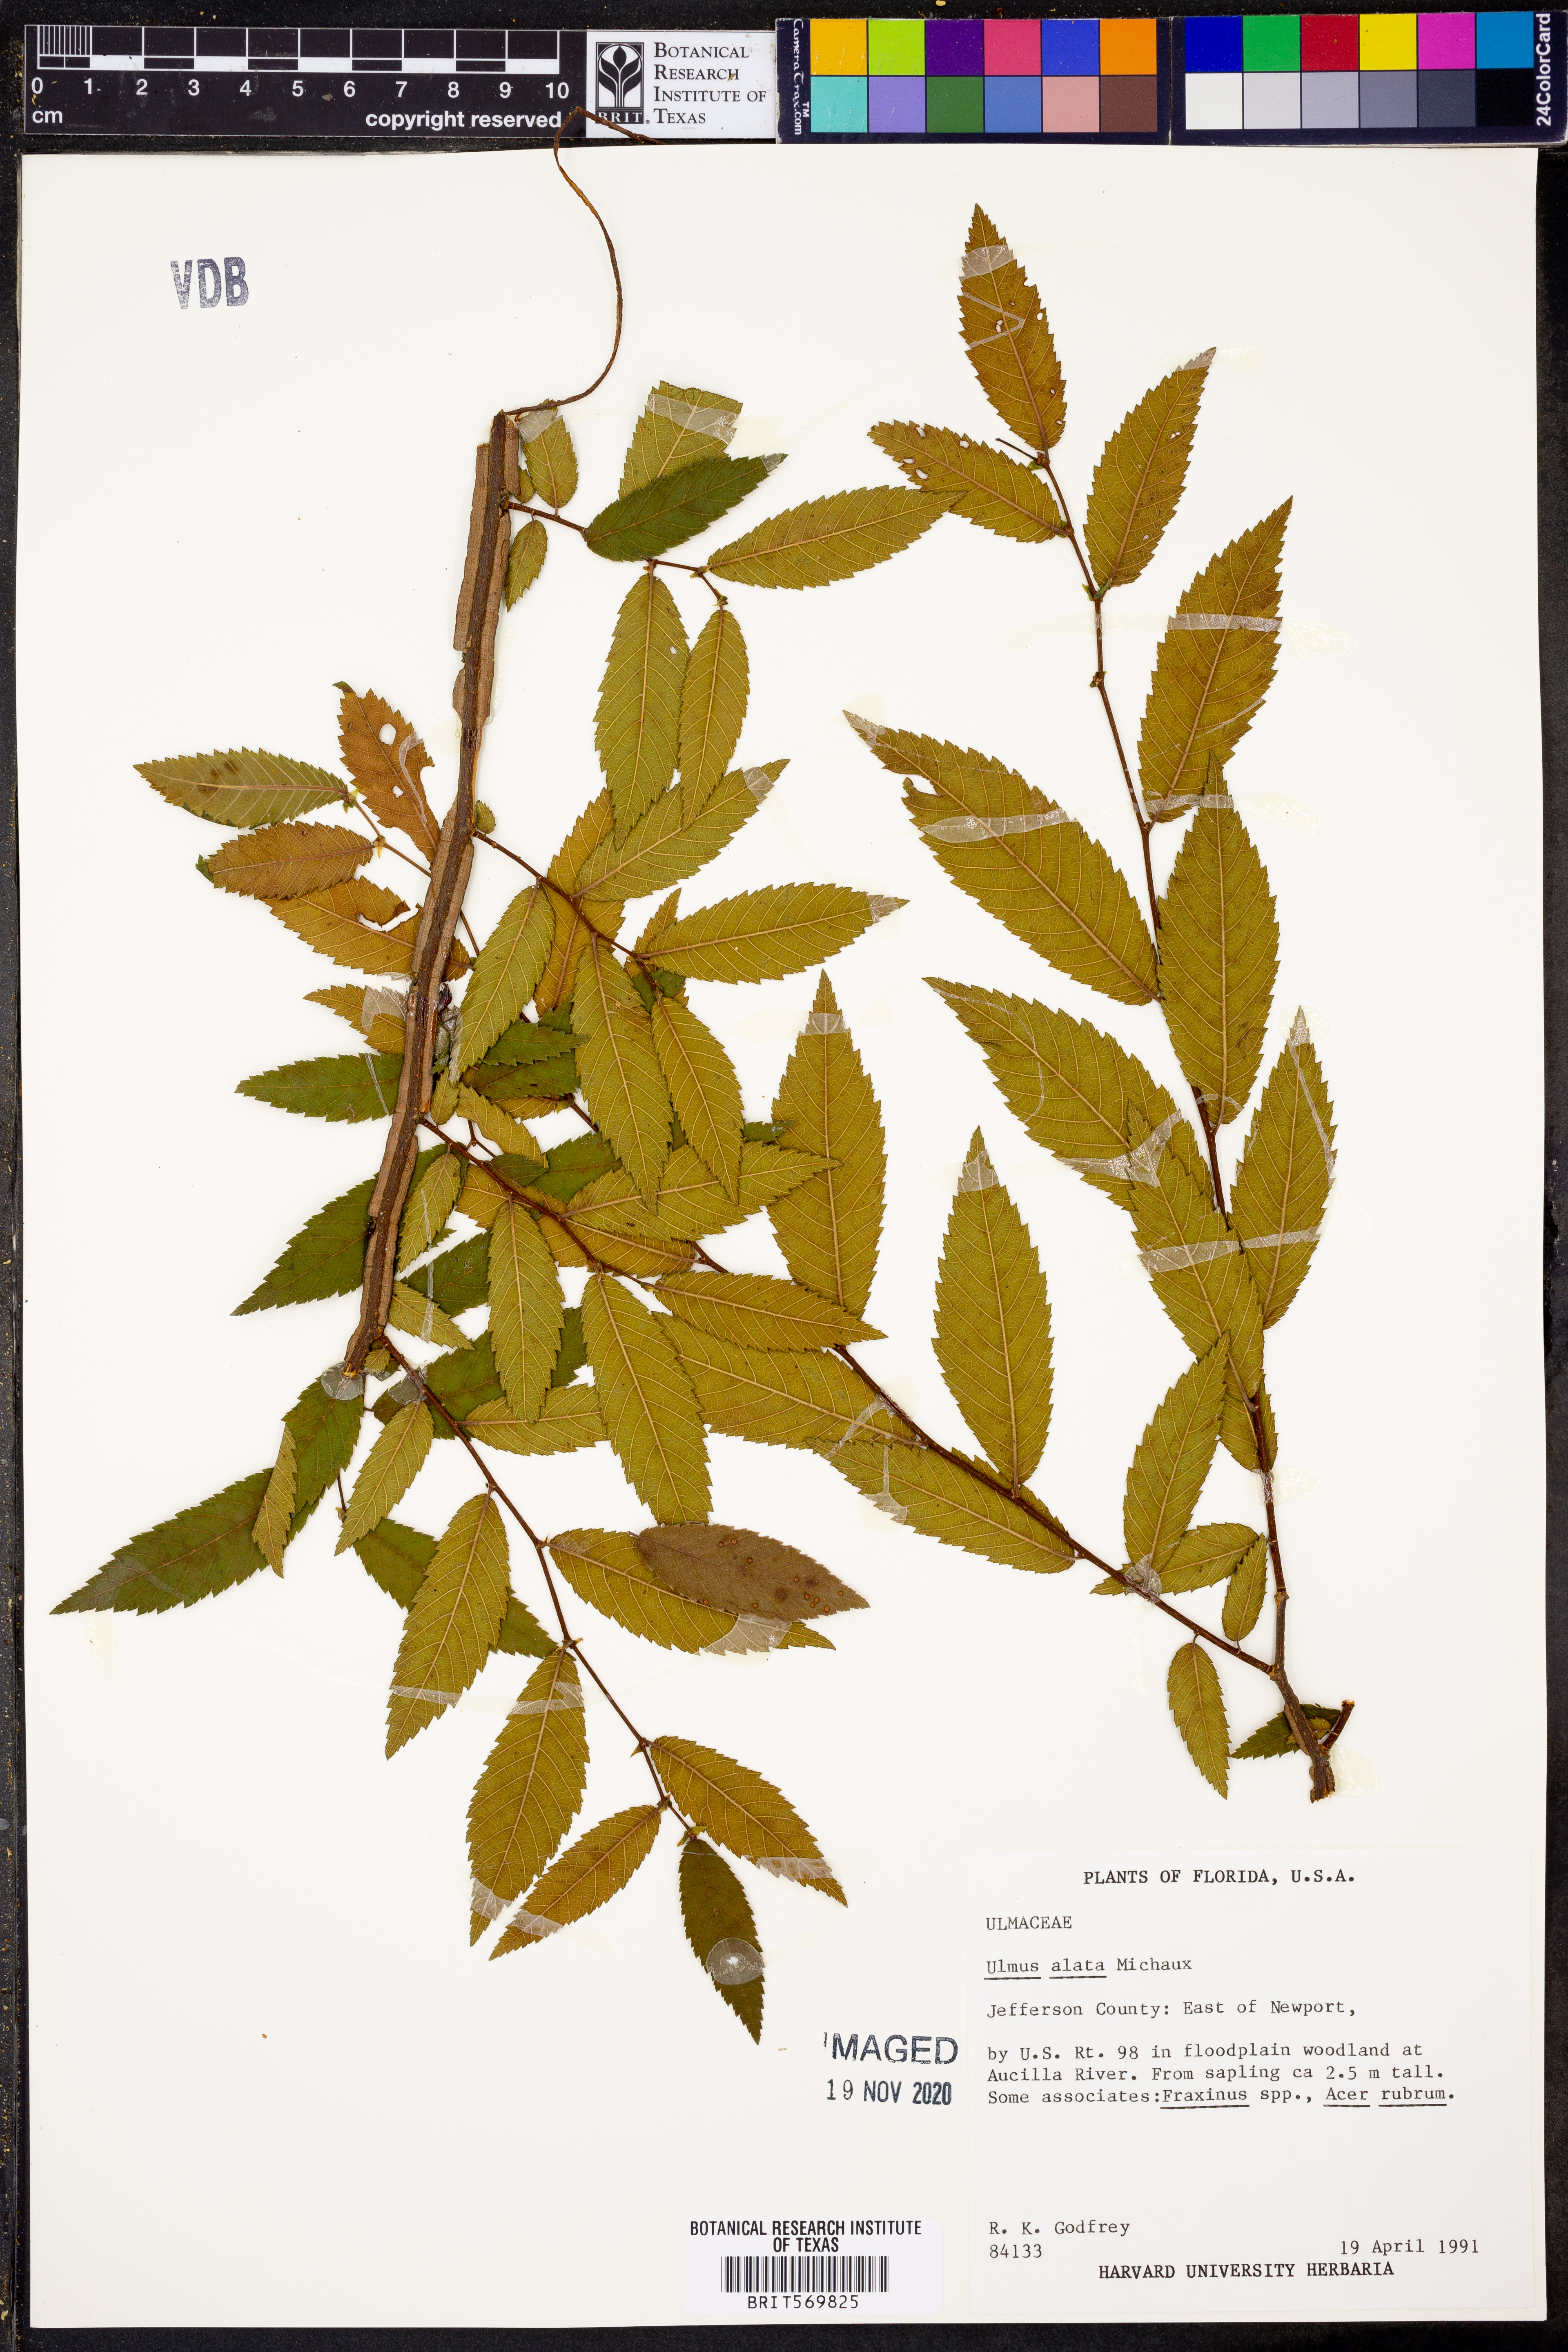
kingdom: Plantae
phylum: Tracheophyta
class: Magnoliopsida
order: Rosales
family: Ulmaceae
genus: Ulmus
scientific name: Ulmus alata
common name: Winged elm
